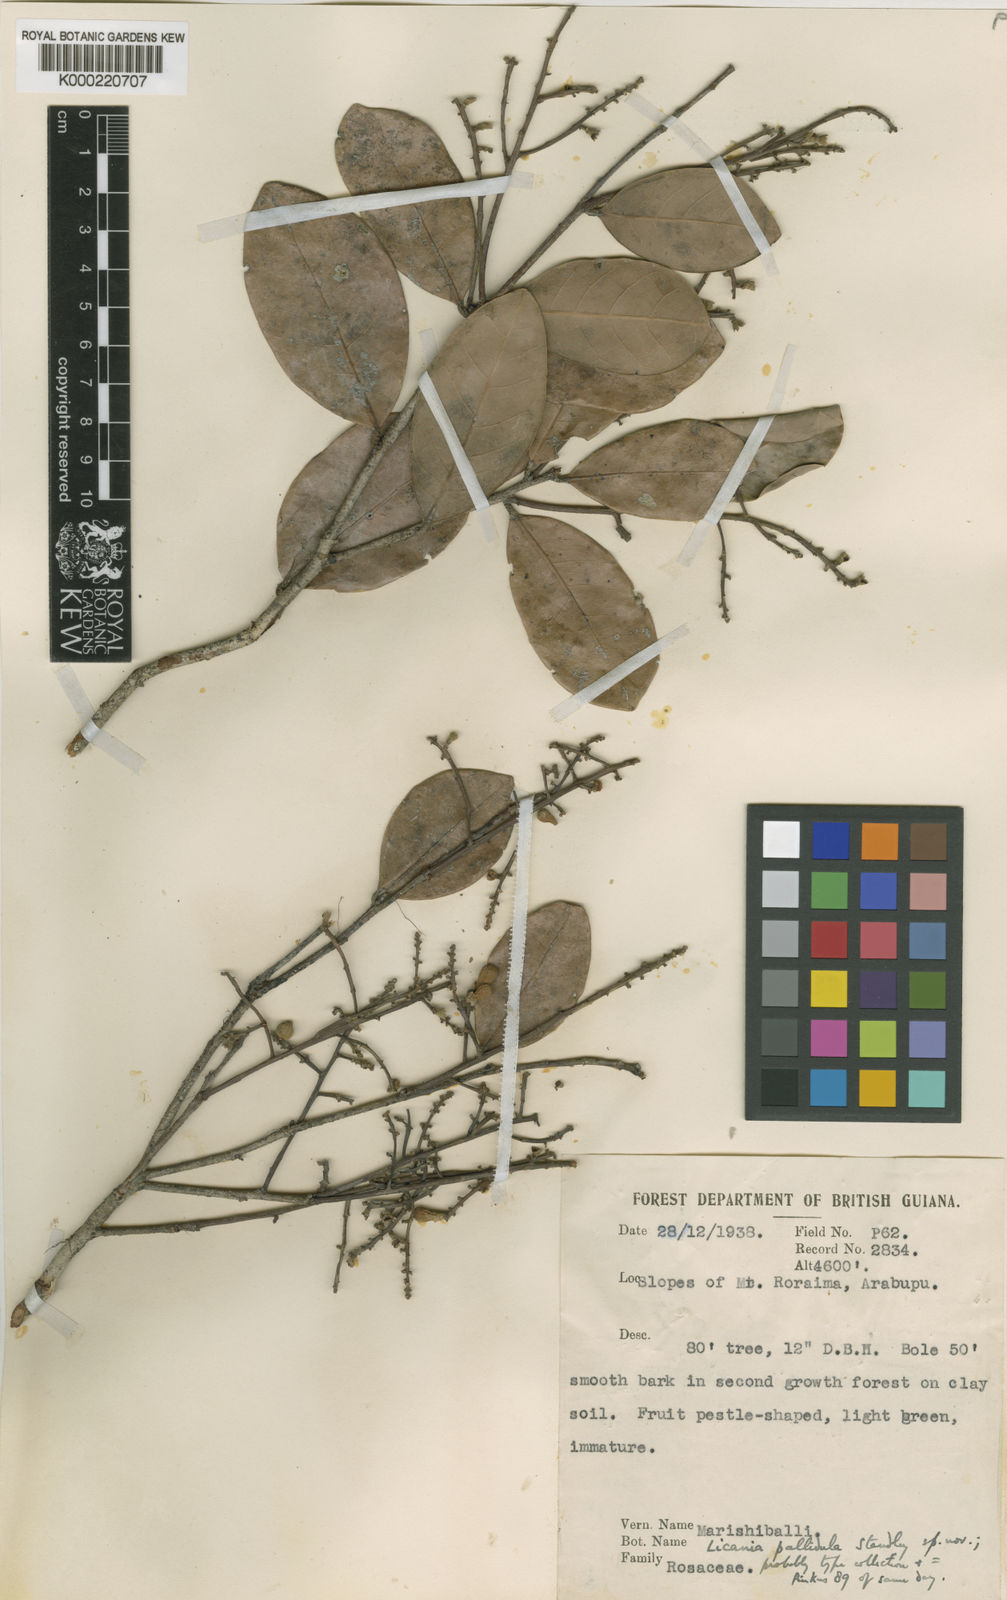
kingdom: Plantae
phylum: Tracheophyta
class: Magnoliopsida
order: Malpighiales
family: Chrysobalanaceae
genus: Licania
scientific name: Licania coriacea
